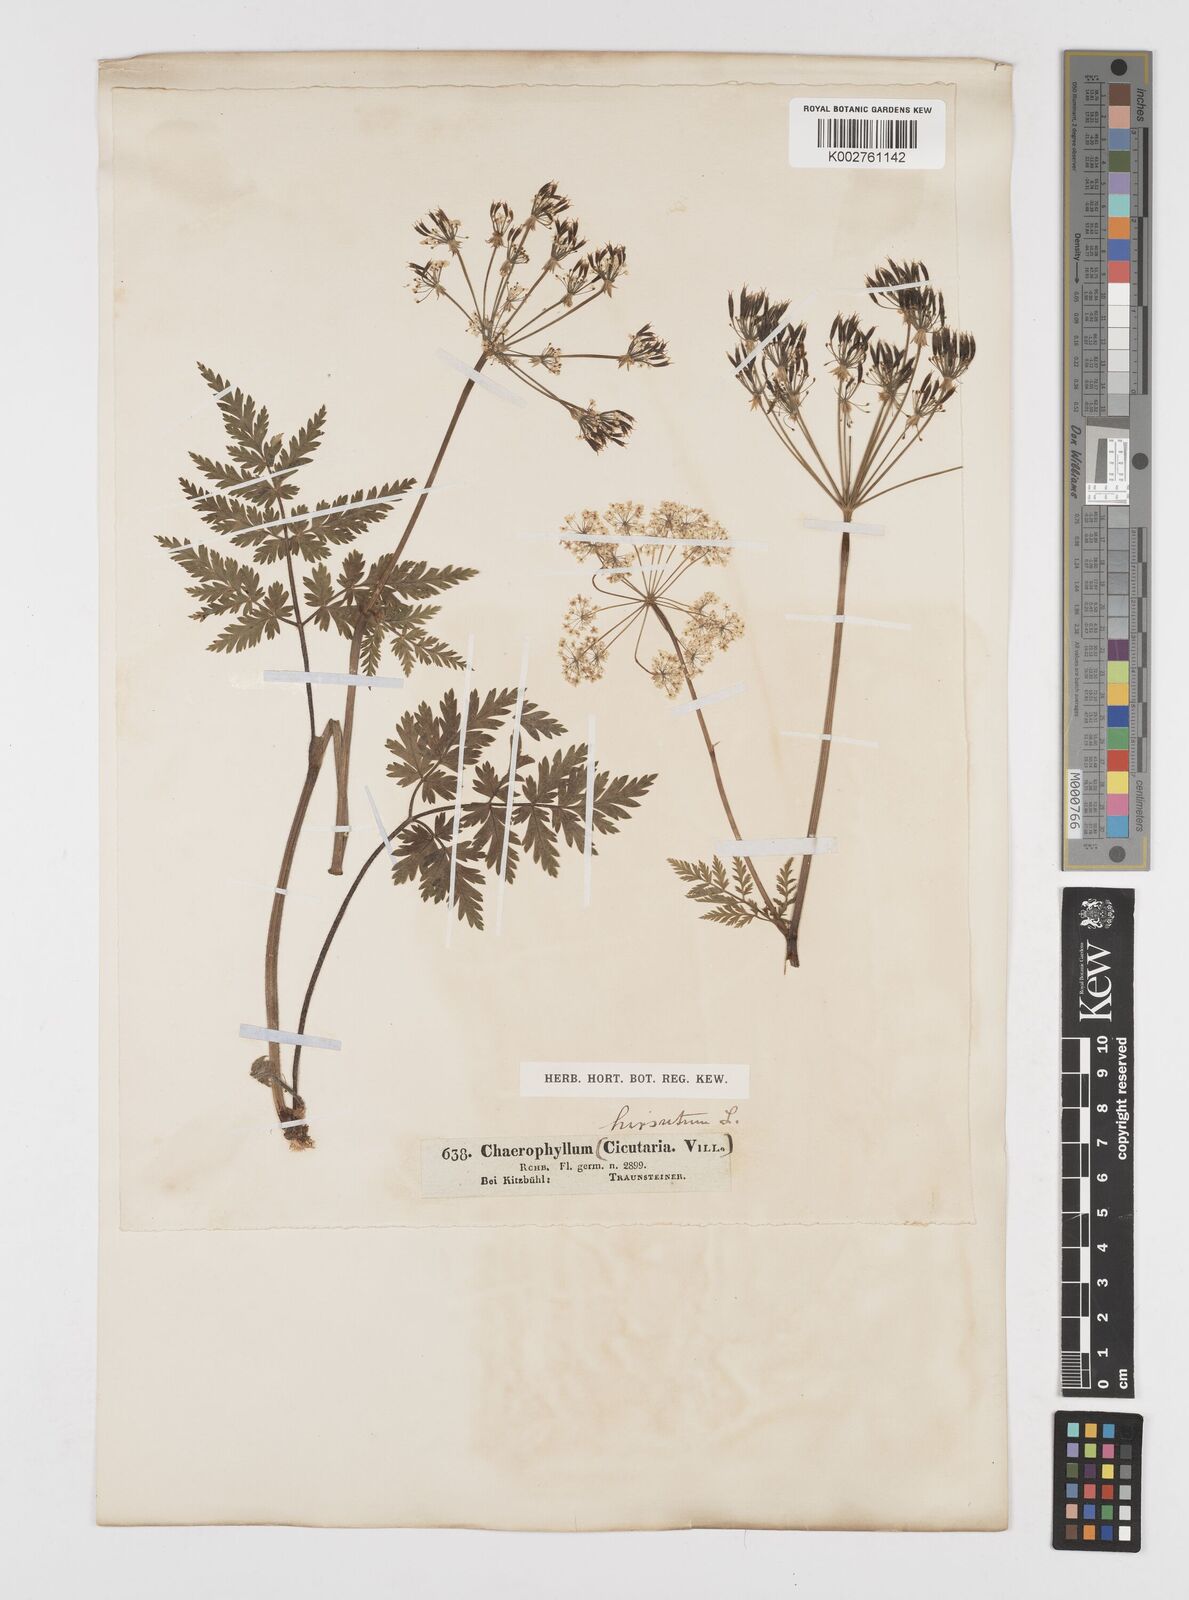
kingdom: Plantae
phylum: Tracheophyta
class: Magnoliopsida
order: Apiales
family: Apiaceae
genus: Chaerophyllum
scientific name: Chaerophyllum hirsutum
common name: Hairy chervil
